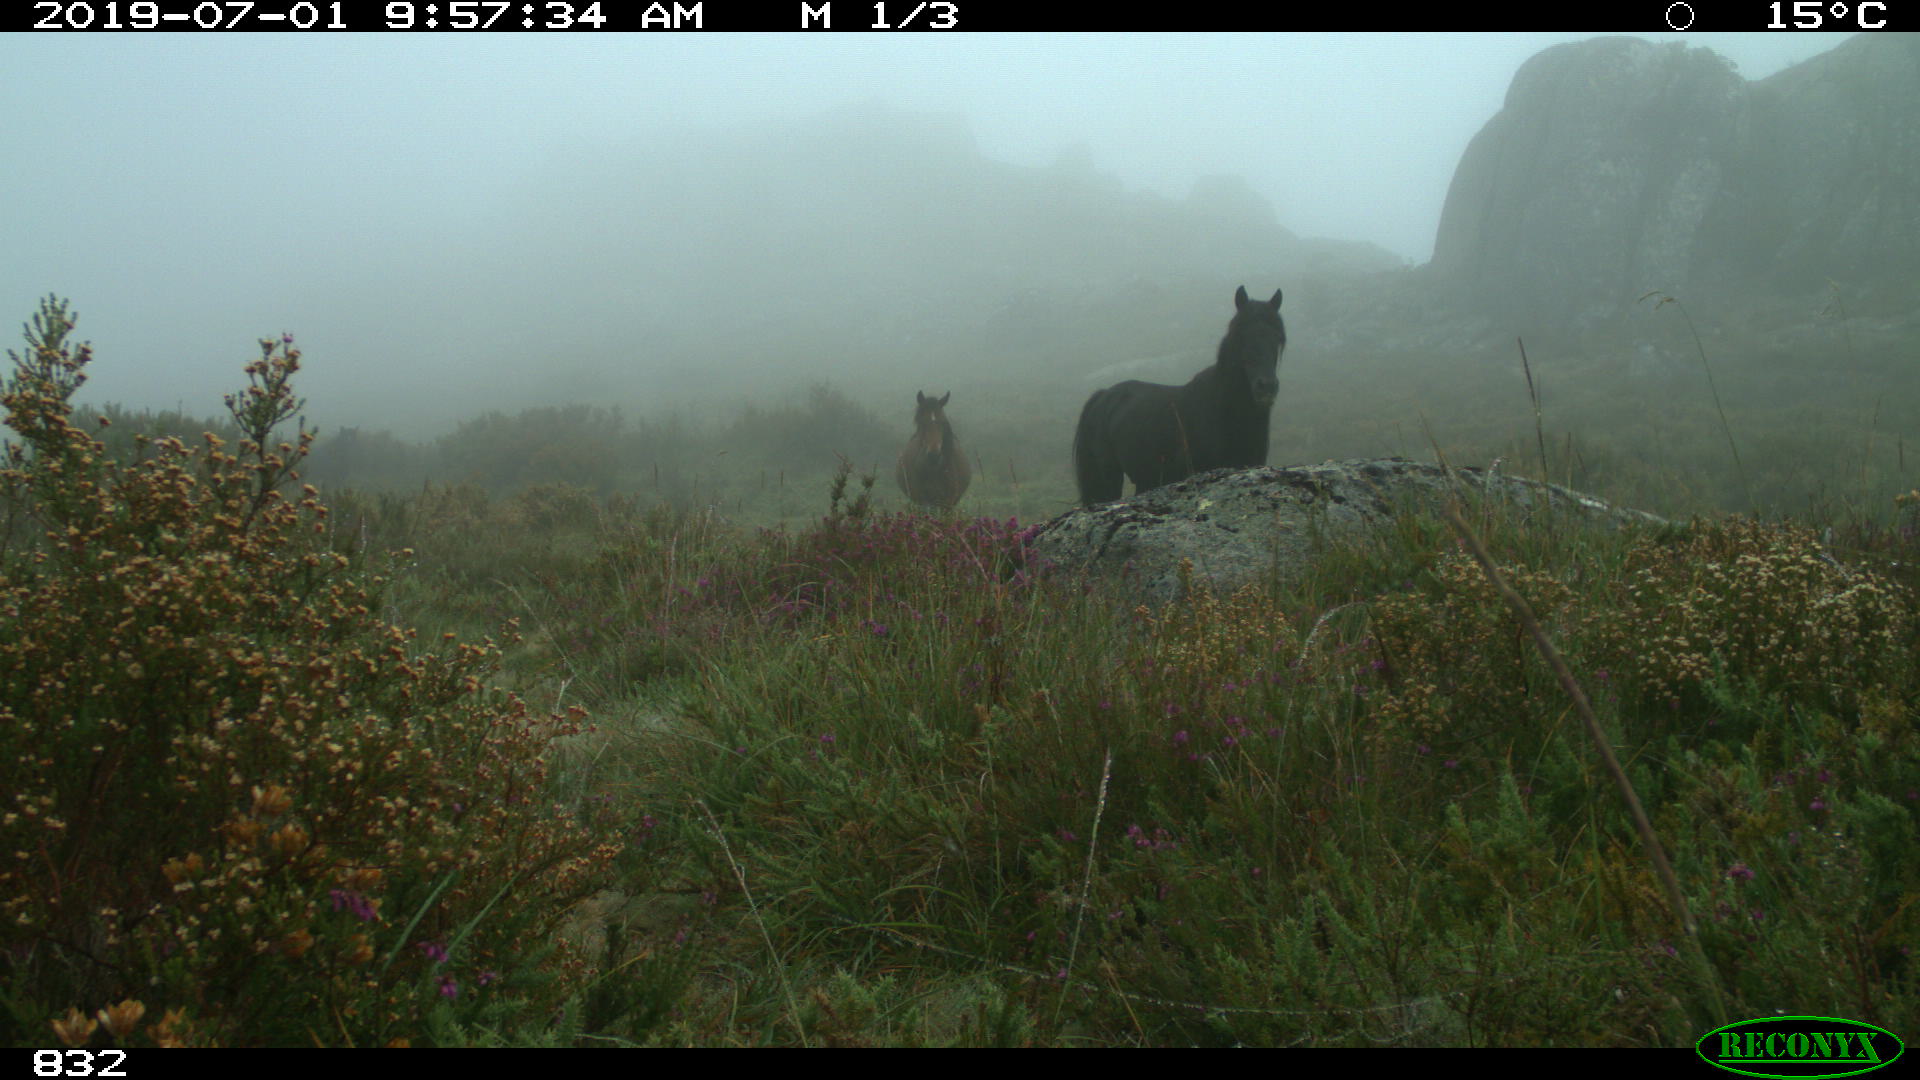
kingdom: Animalia
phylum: Chordata
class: Mammalia
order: Perissodactyla
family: Equidae
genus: Equus
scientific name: Equus caballus
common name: Horse
